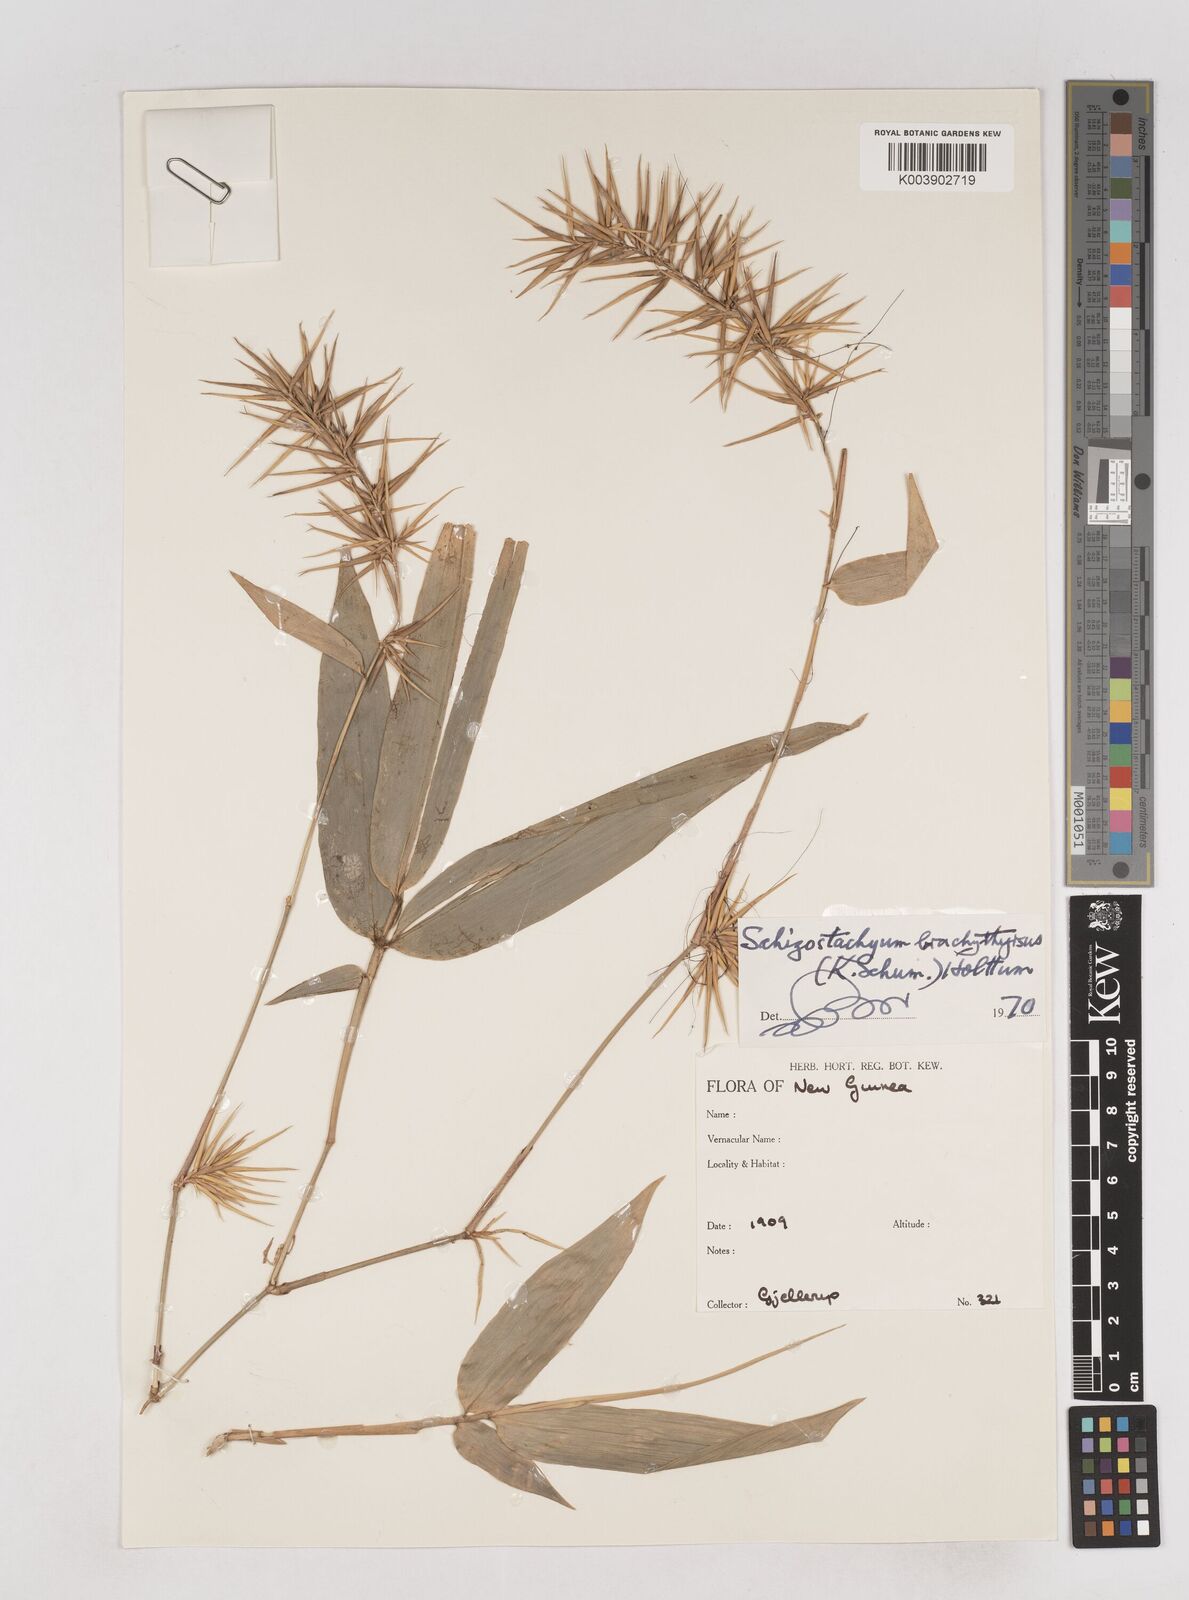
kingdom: Plantae
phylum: Tracheophyta
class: Liliopsida
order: Poales
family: Poaceae
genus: Schizostachyum
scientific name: Schizostachyum brachythyrsus
